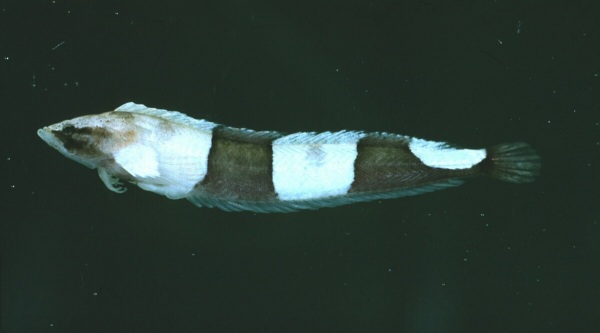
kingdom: Animalia
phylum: Chordata
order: Perciformes
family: Clinidae
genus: Cancelloxus
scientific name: Cancelloxus elongatus
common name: Whiteblotched klipfish
